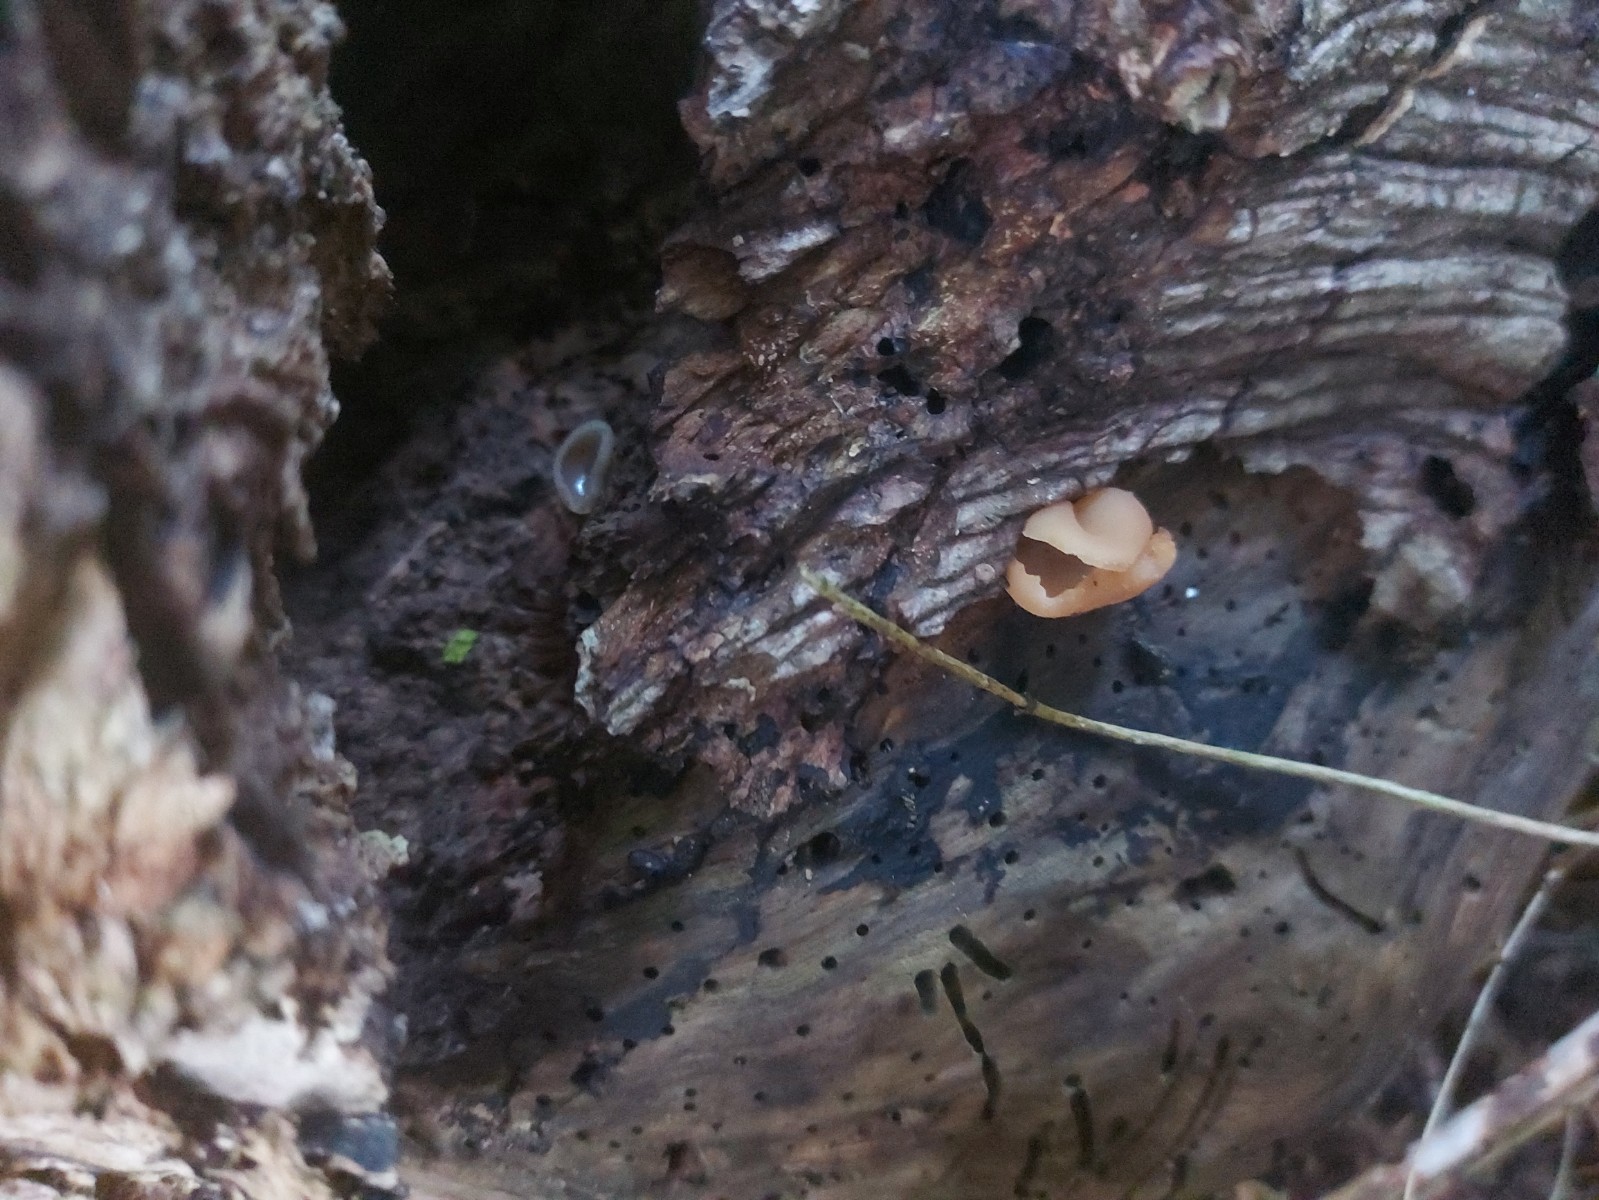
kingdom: Fungi
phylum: Ascomycota
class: Pezizomycetes
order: Pezizales
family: Pezizaceae
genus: Peziza
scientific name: Peziza varia
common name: Ved-bægersvamp
